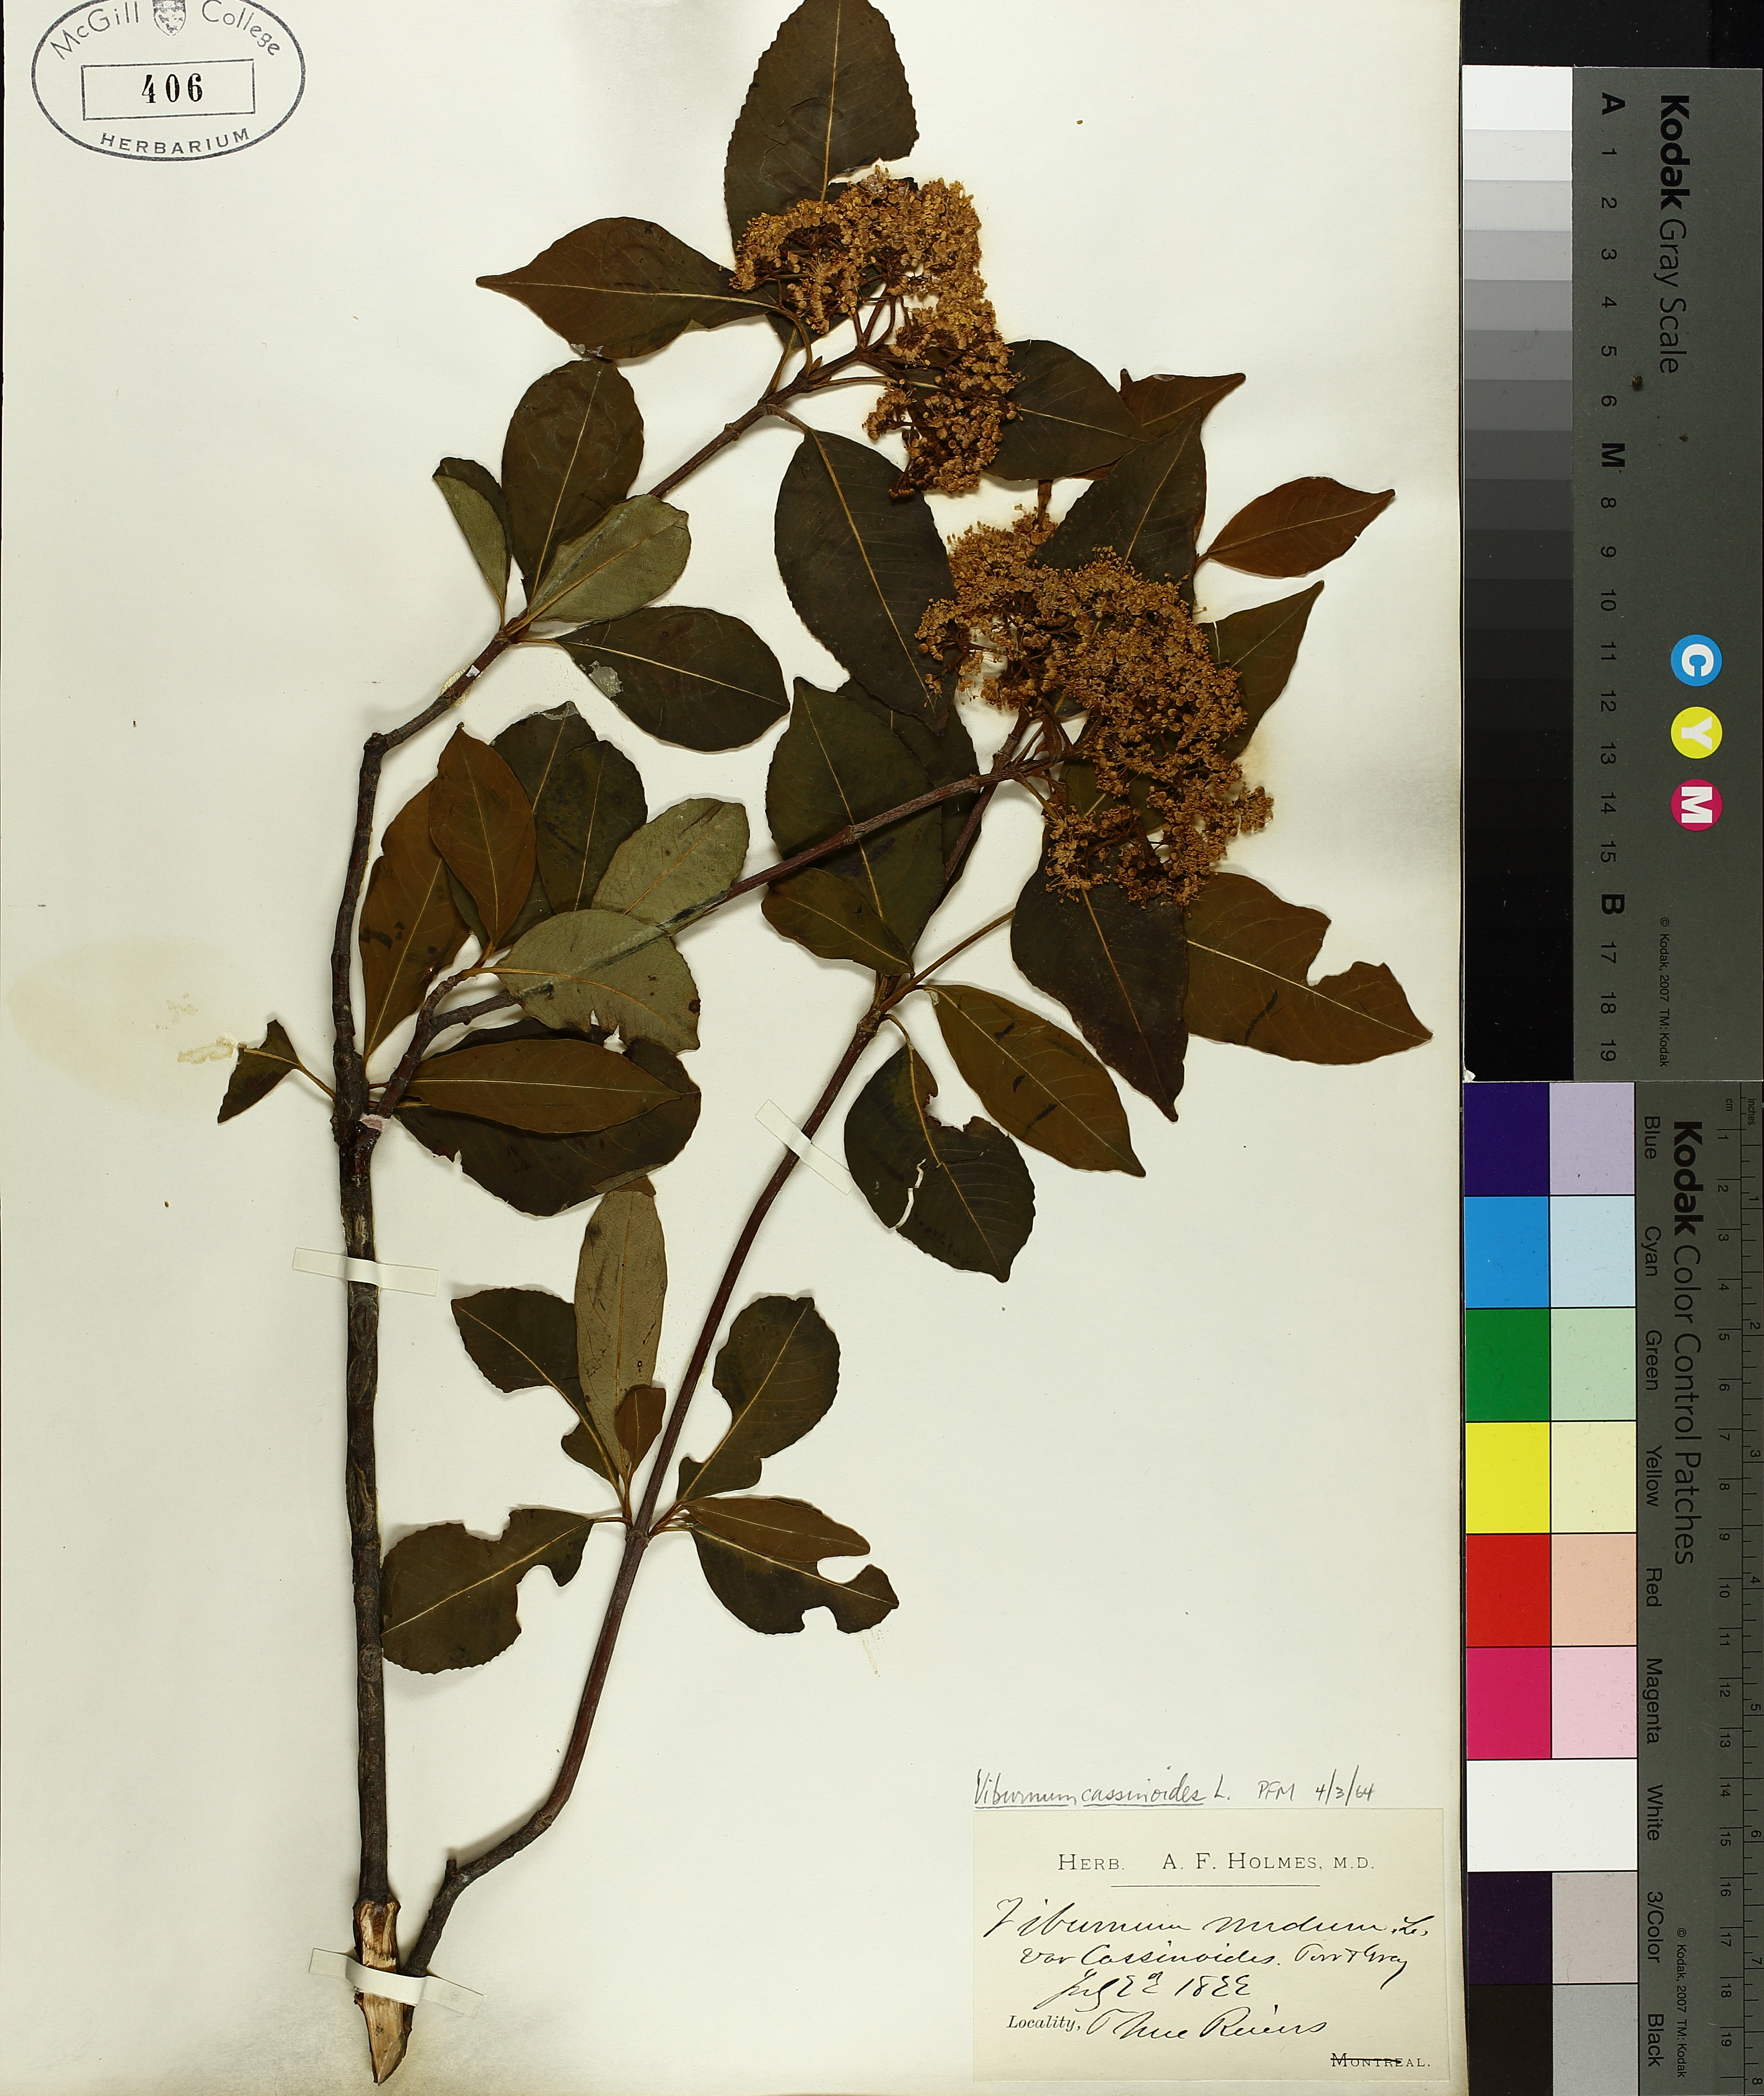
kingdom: Plantae
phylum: Tracheophyta
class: Magnoliopsida
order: Dipsacales
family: Viburnaceae
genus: Viburnum
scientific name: Viburnum cassinoides
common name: Swamp haw
